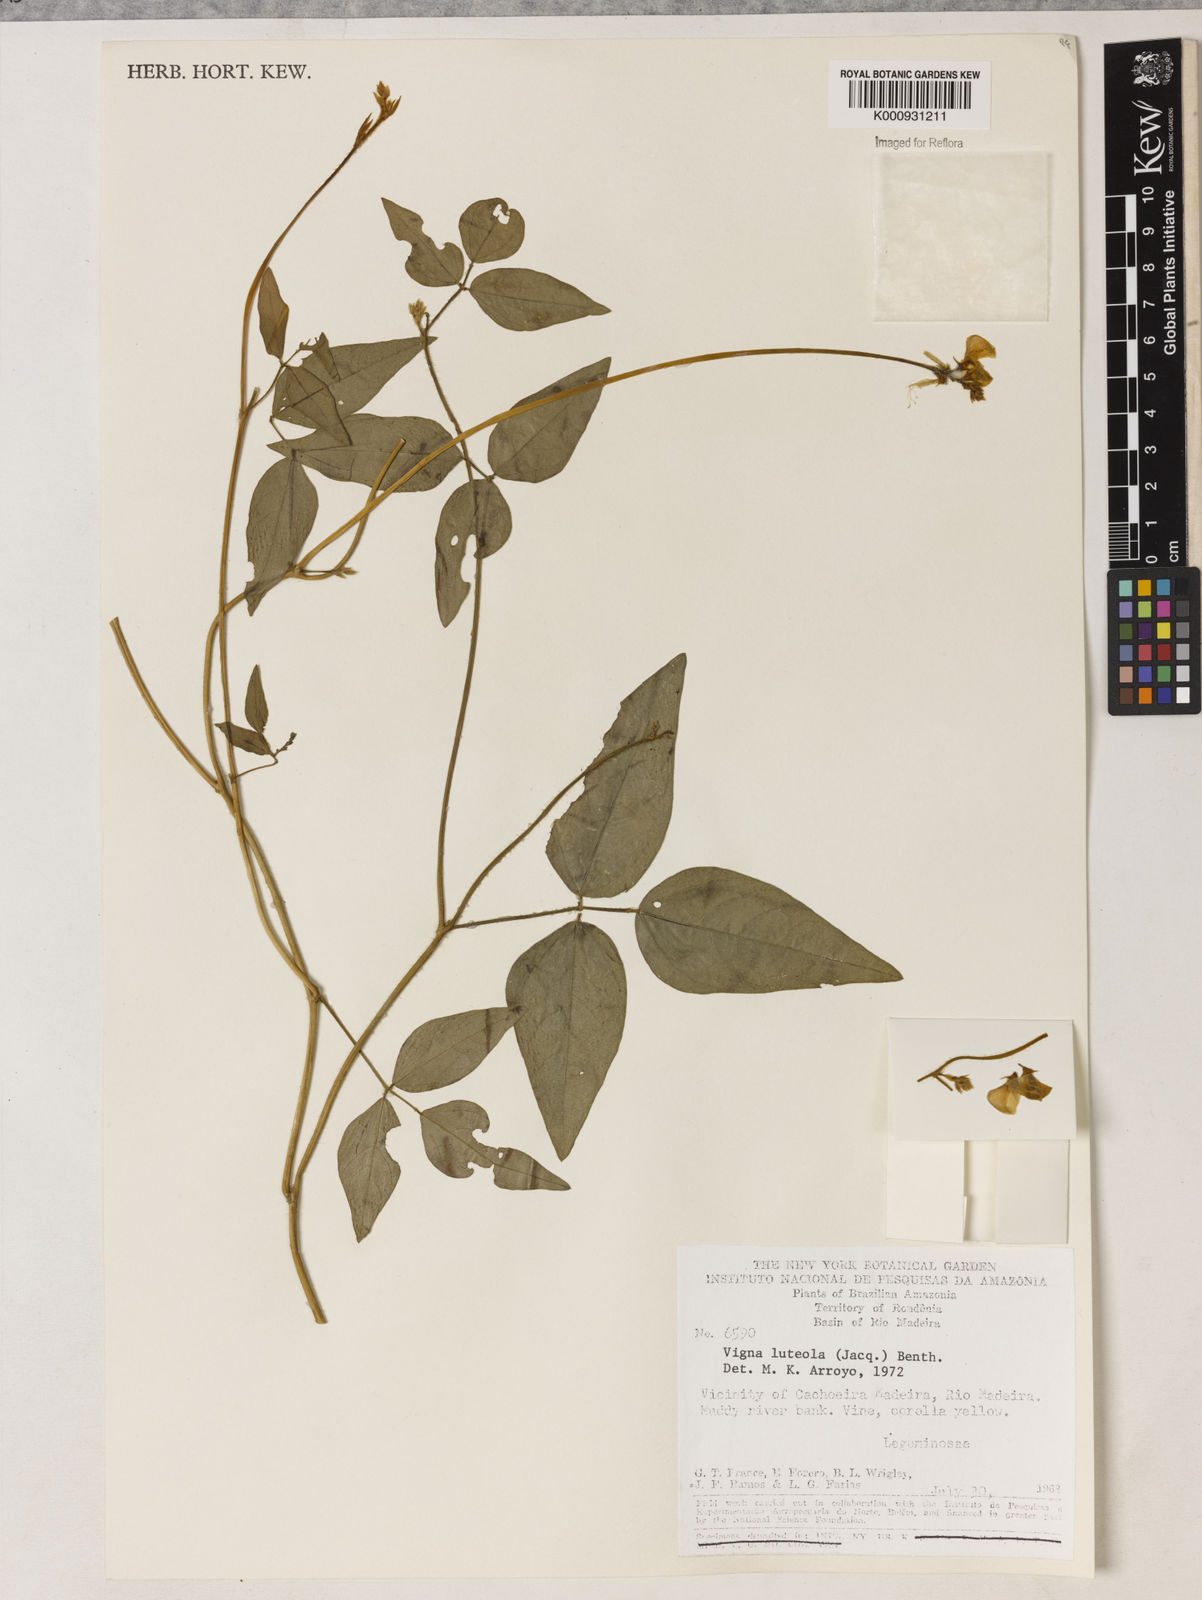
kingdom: Plantae
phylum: Tracheophyta
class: Magnoliopsida
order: Fabales
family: Fabaceae
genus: Vigna
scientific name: Vigna luteola
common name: Hairypod cowpea
